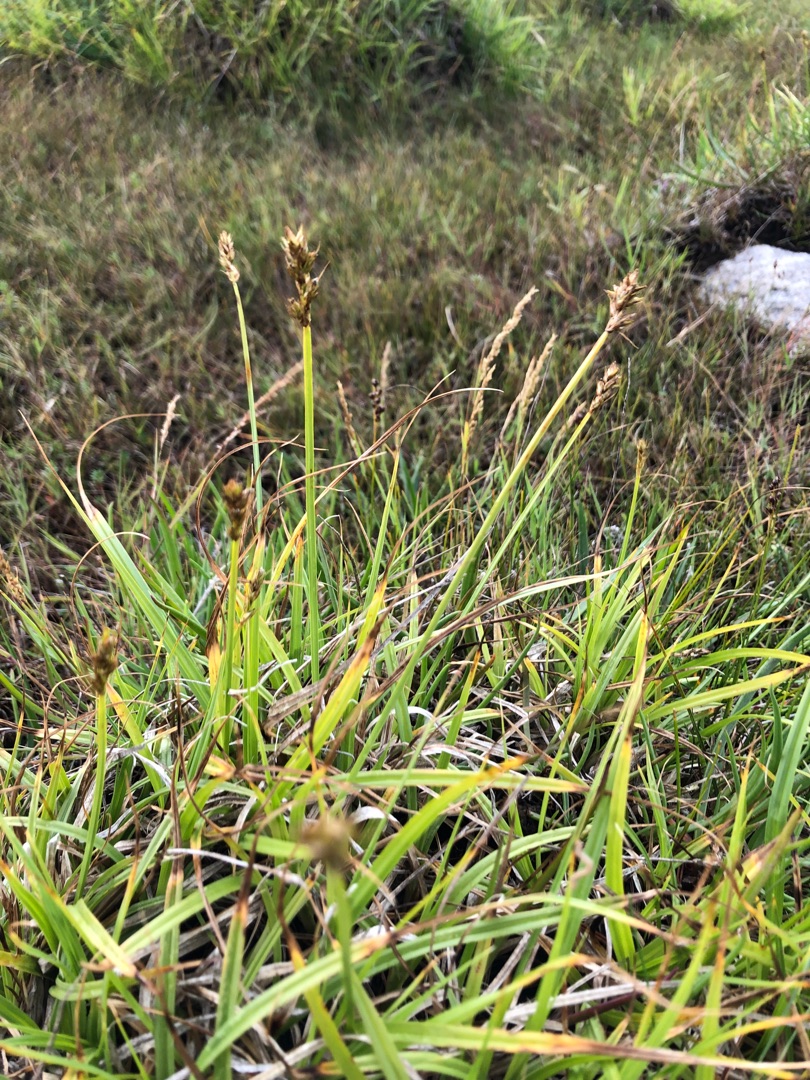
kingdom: Plantae
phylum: Tracheophyta
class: Liliopsida
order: Poales
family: Cyperaceae
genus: Carex
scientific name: Carex otrubae
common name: Sylt-star
